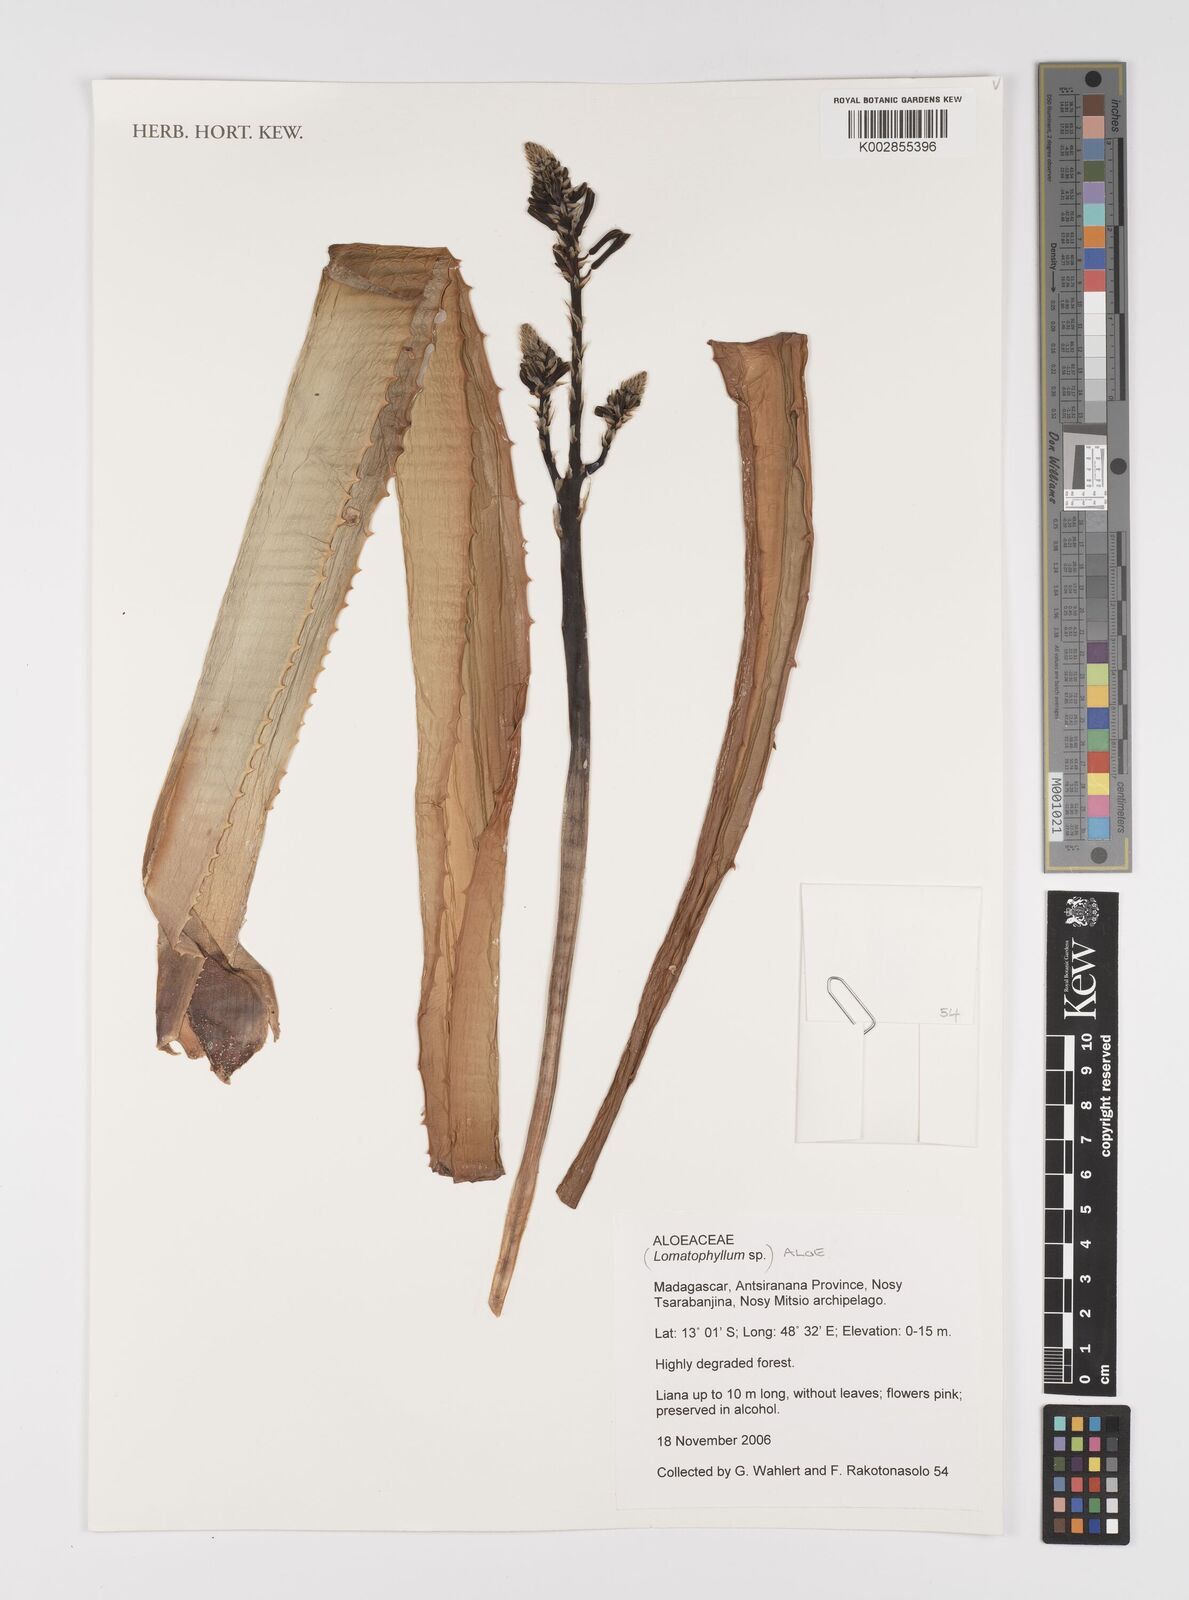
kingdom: Plantae
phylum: Tracheophyta
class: Liliopsida
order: Asparagales
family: Asphodelaceae
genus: Aloe
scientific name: Aloe
